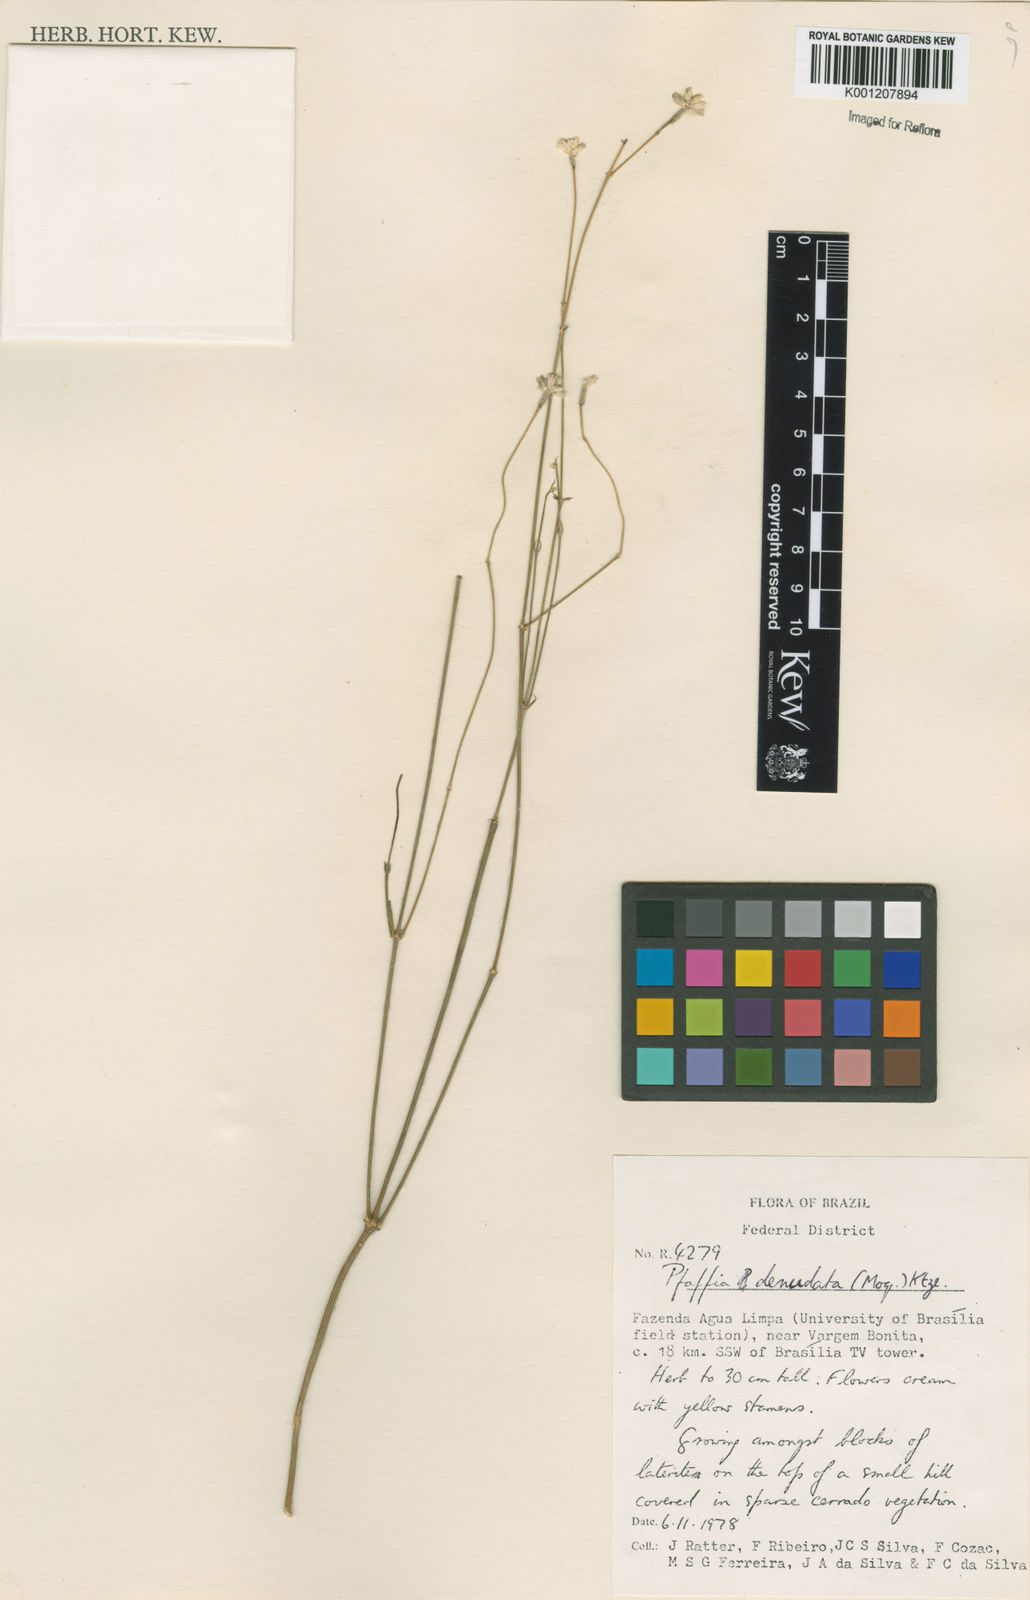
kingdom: Plantae
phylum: Tracheophyta
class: Magnoliopsida
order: Caryophyllales
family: Amaranthaceae
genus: Pfaffia
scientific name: Pfaffia denudata
